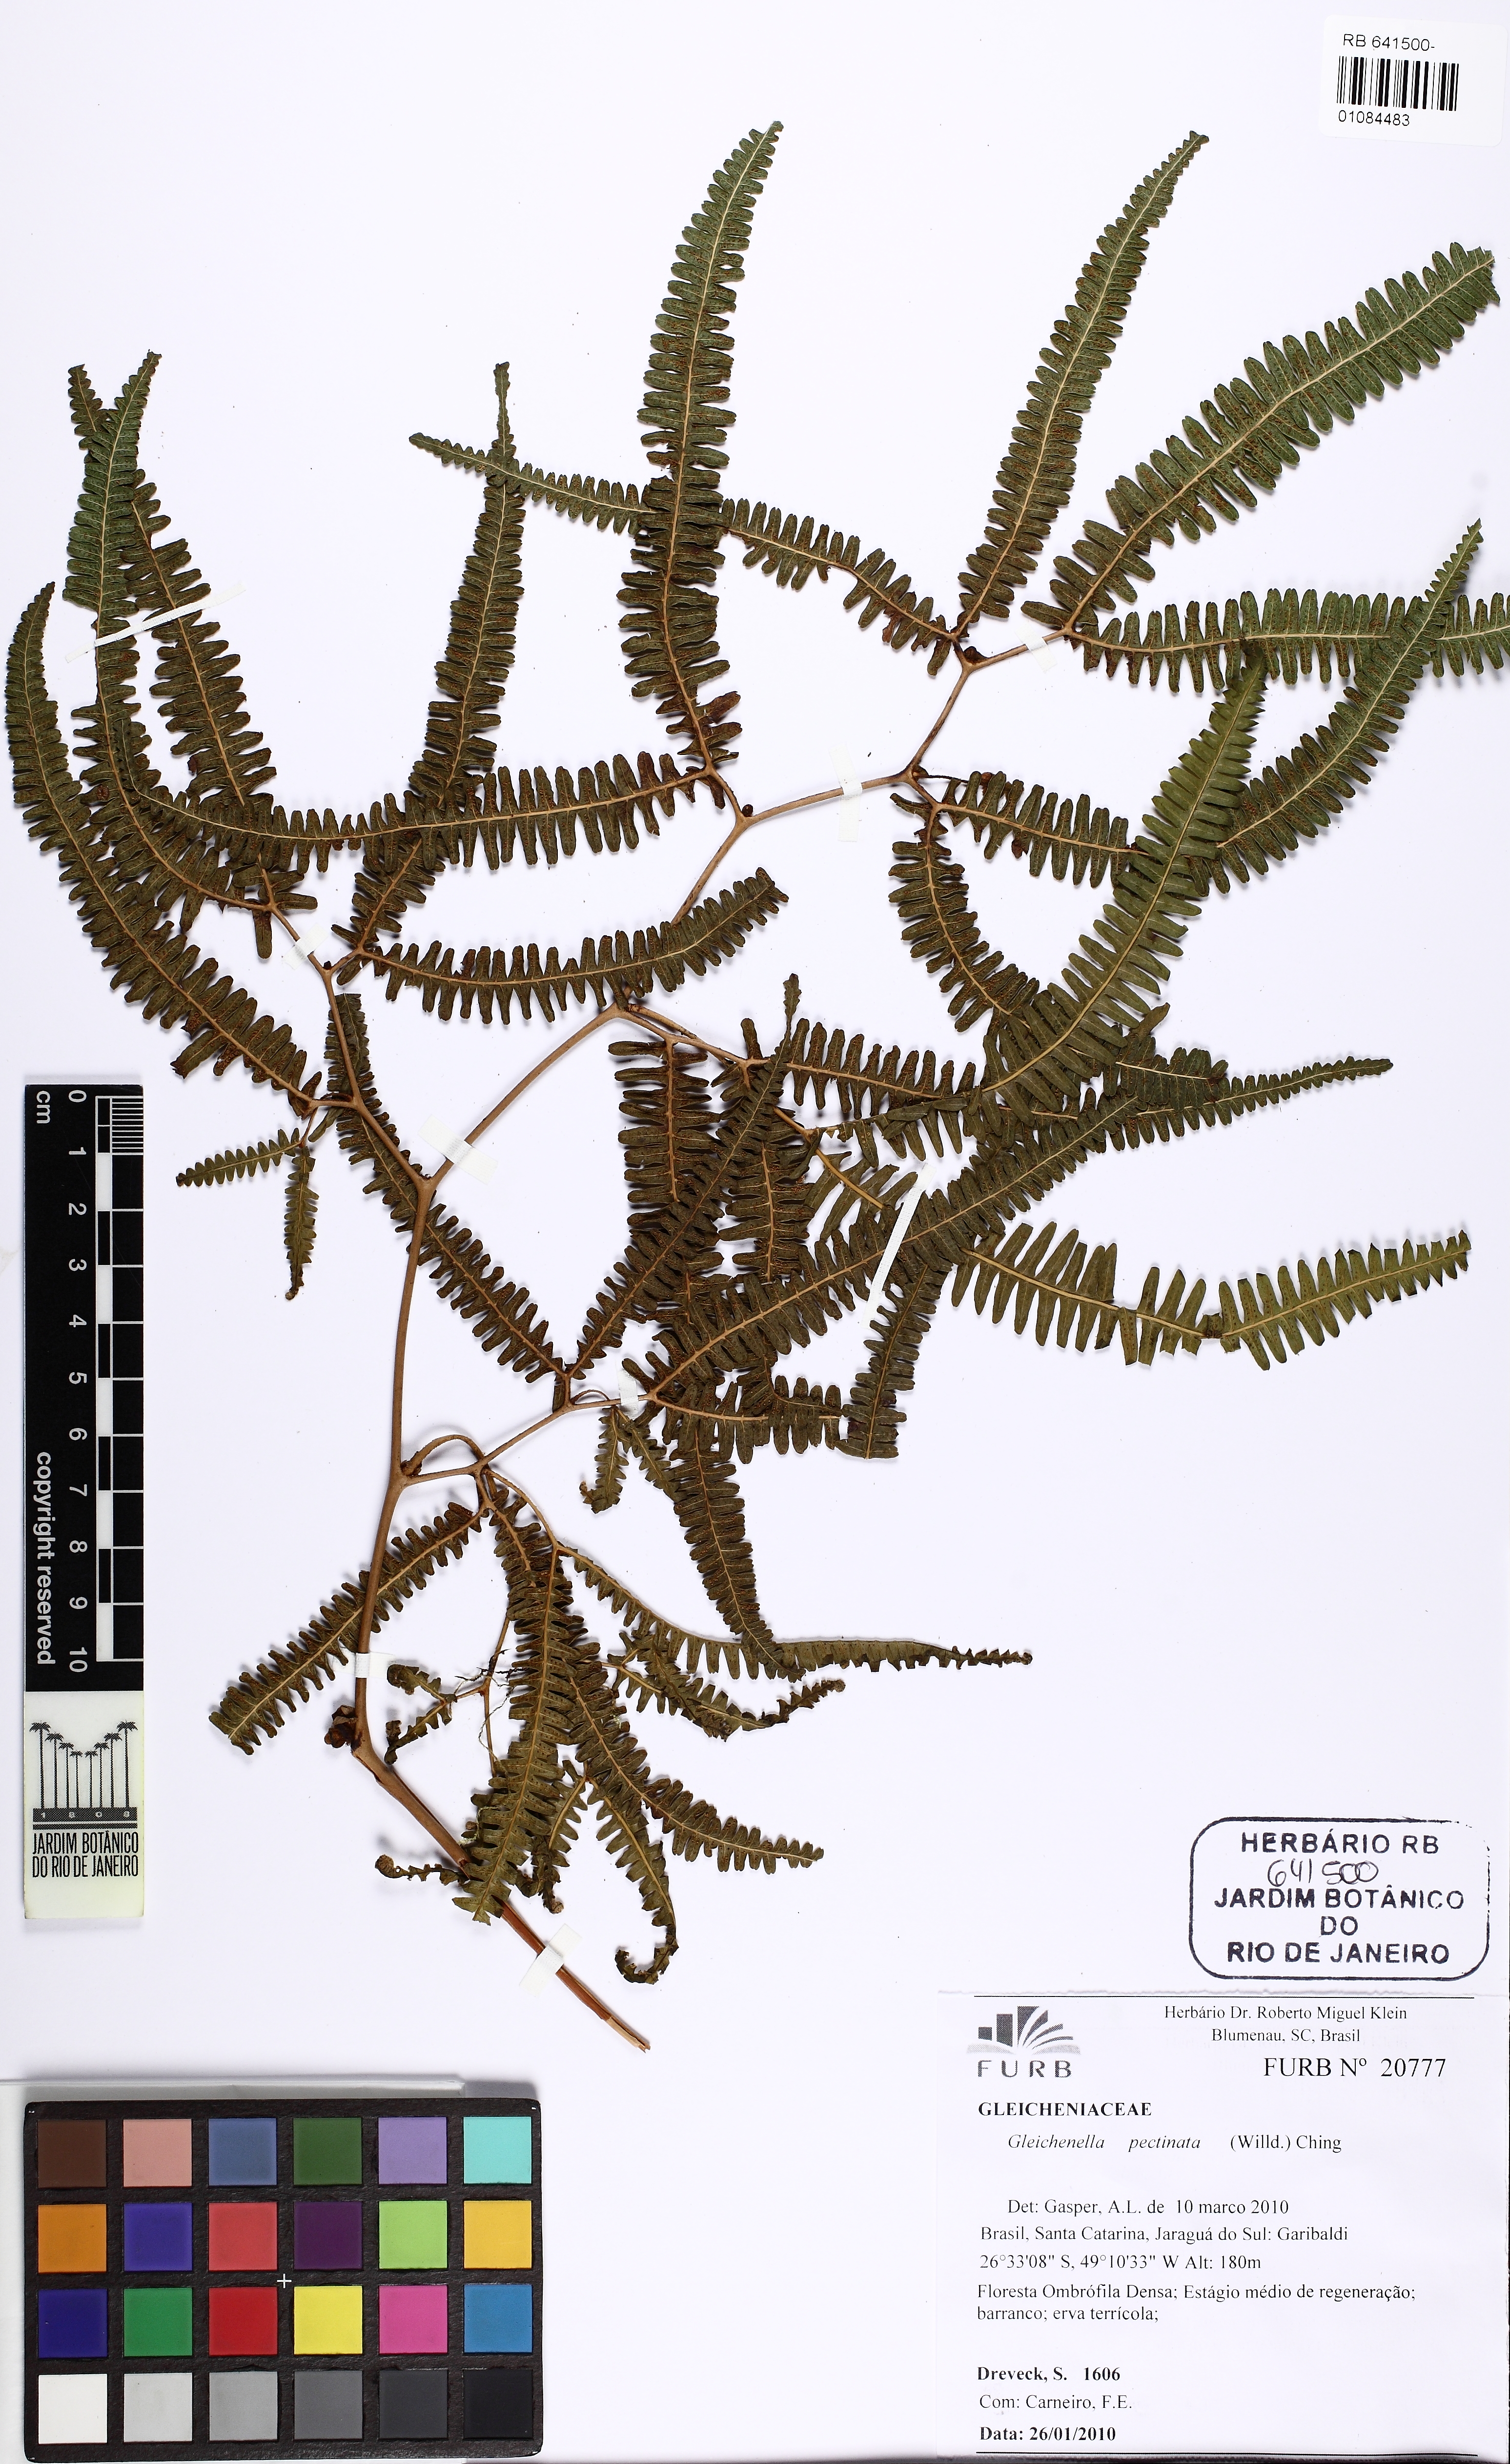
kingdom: Plantae
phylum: Tracheophyta
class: Polypodiopsida
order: Gleicheniales
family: Gleicheniaceae
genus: Gleichenella
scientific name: Gleichenella pectinata
